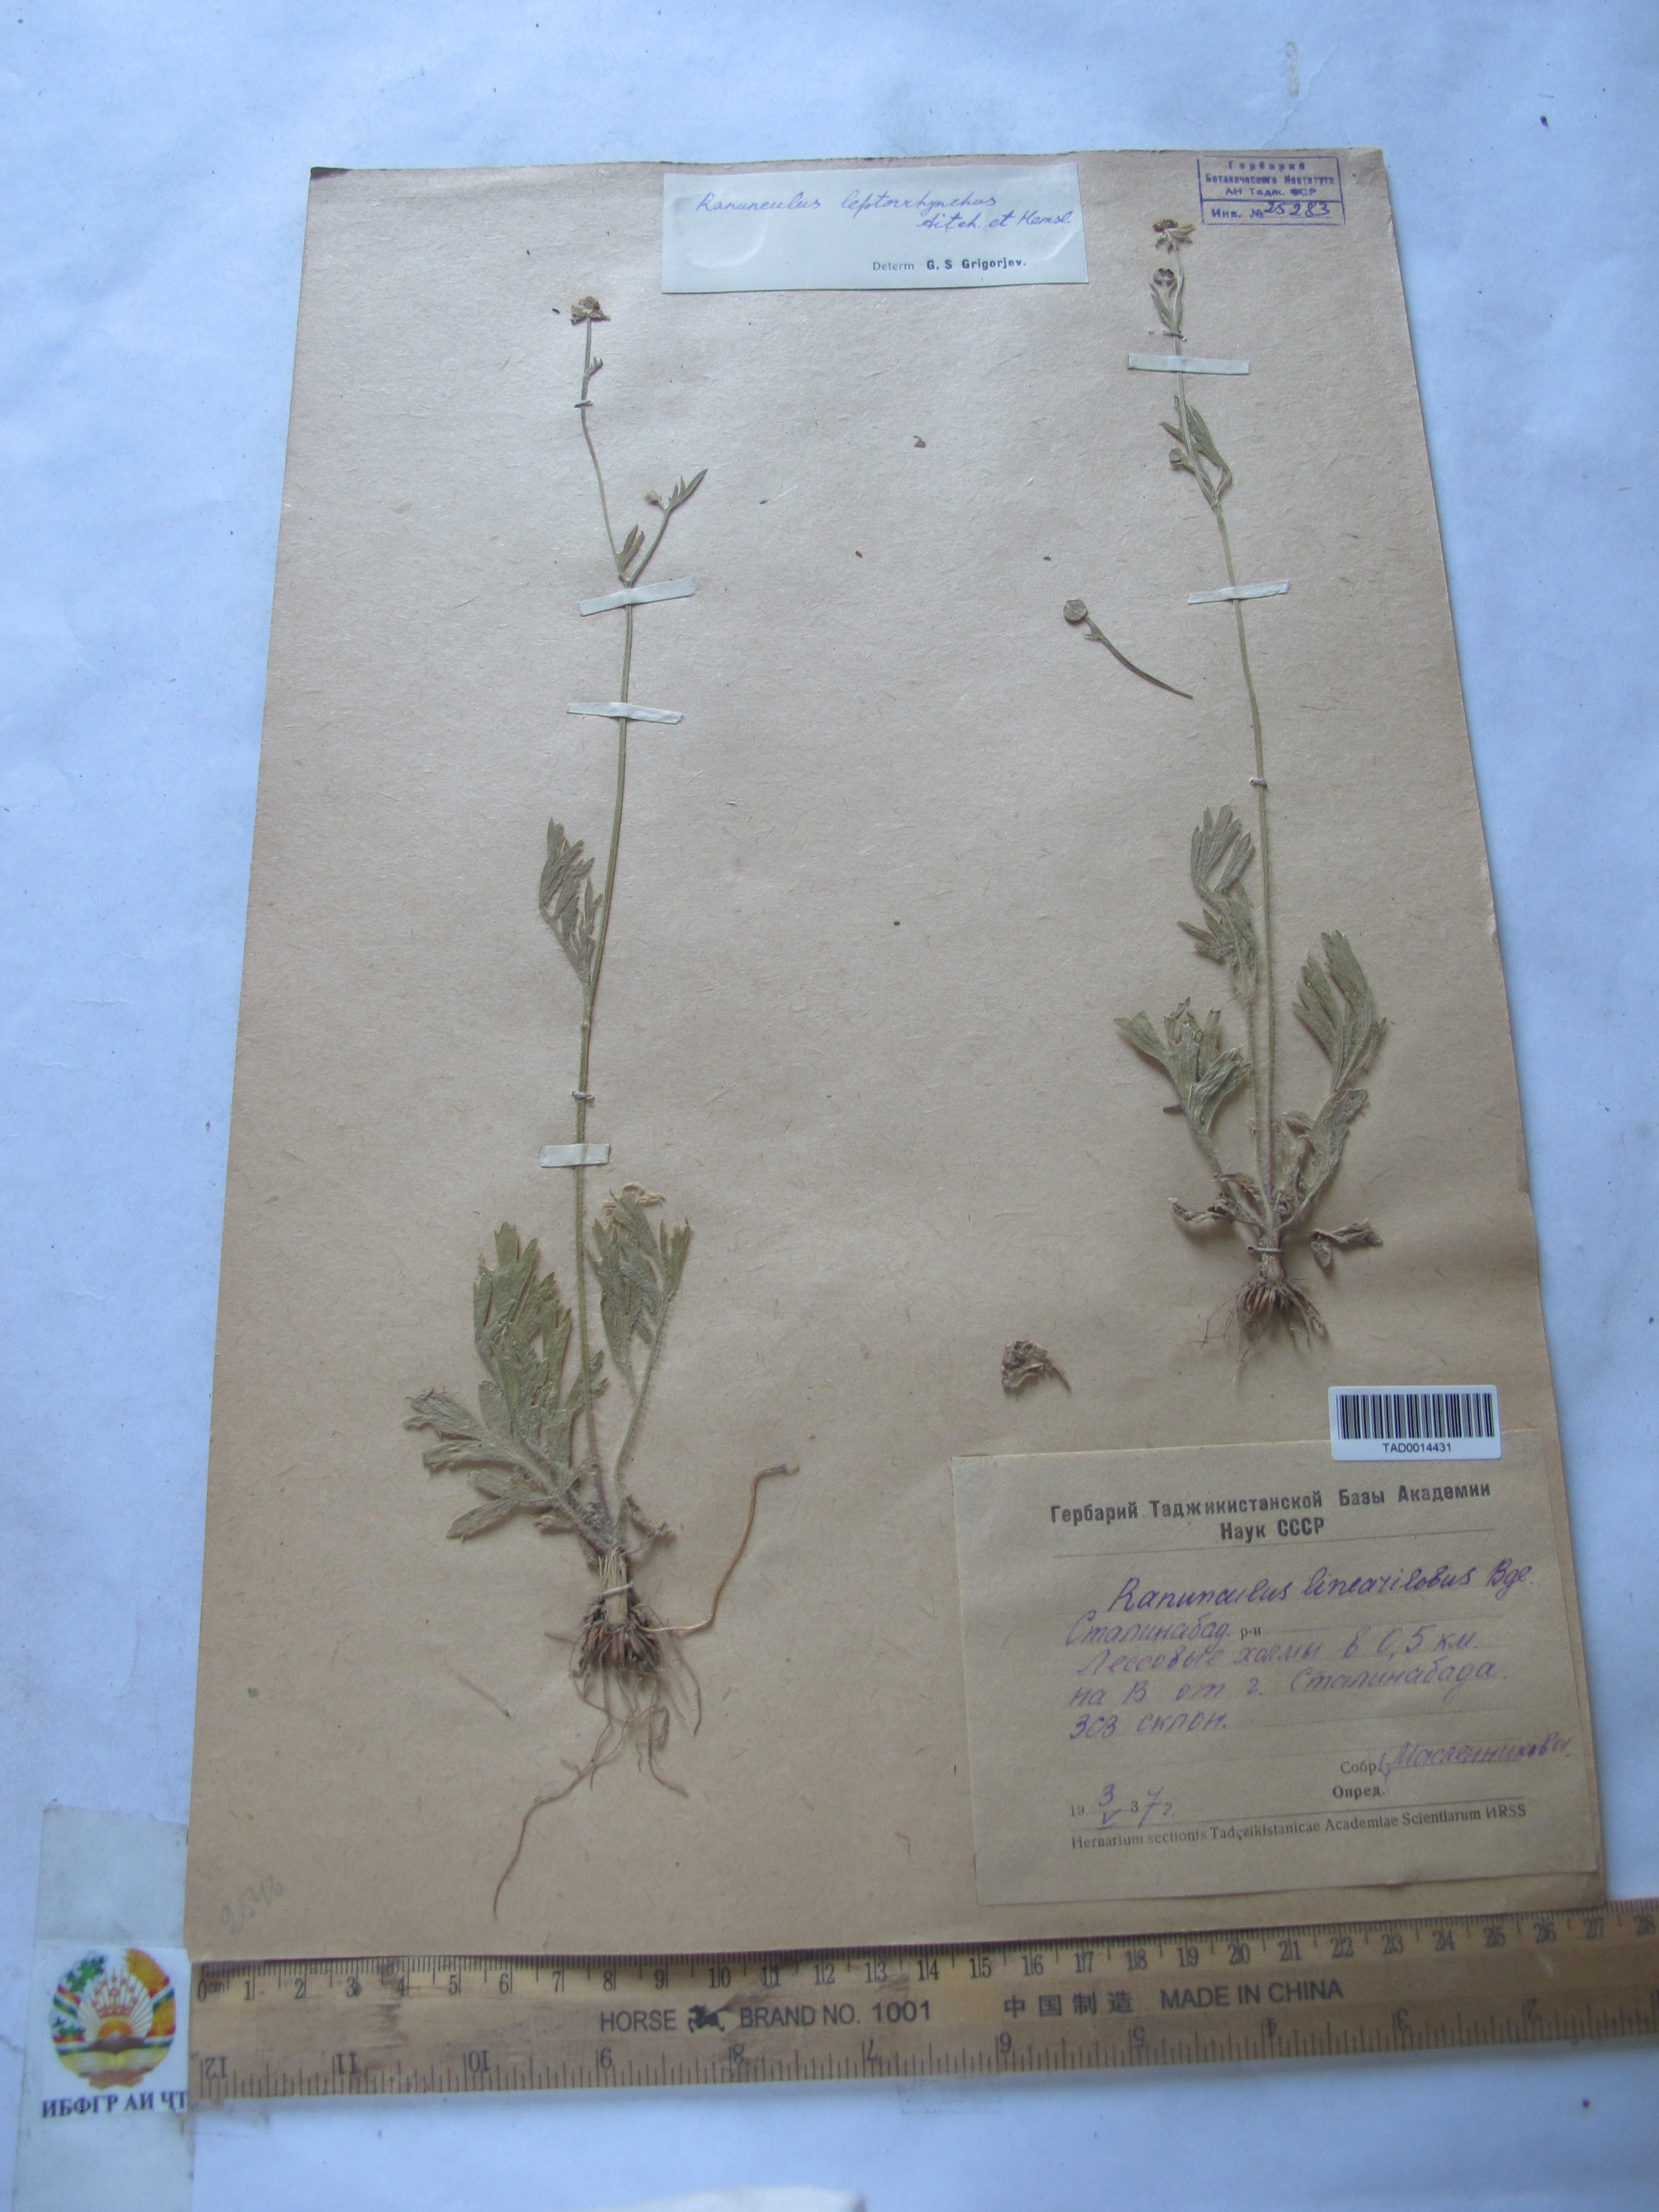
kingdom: Plantae
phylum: Tracheophyta
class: Magnoliopsida
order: Ranunculales
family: Ranunculaceae
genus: Ranunculus
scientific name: Ranunculus linearilobus
